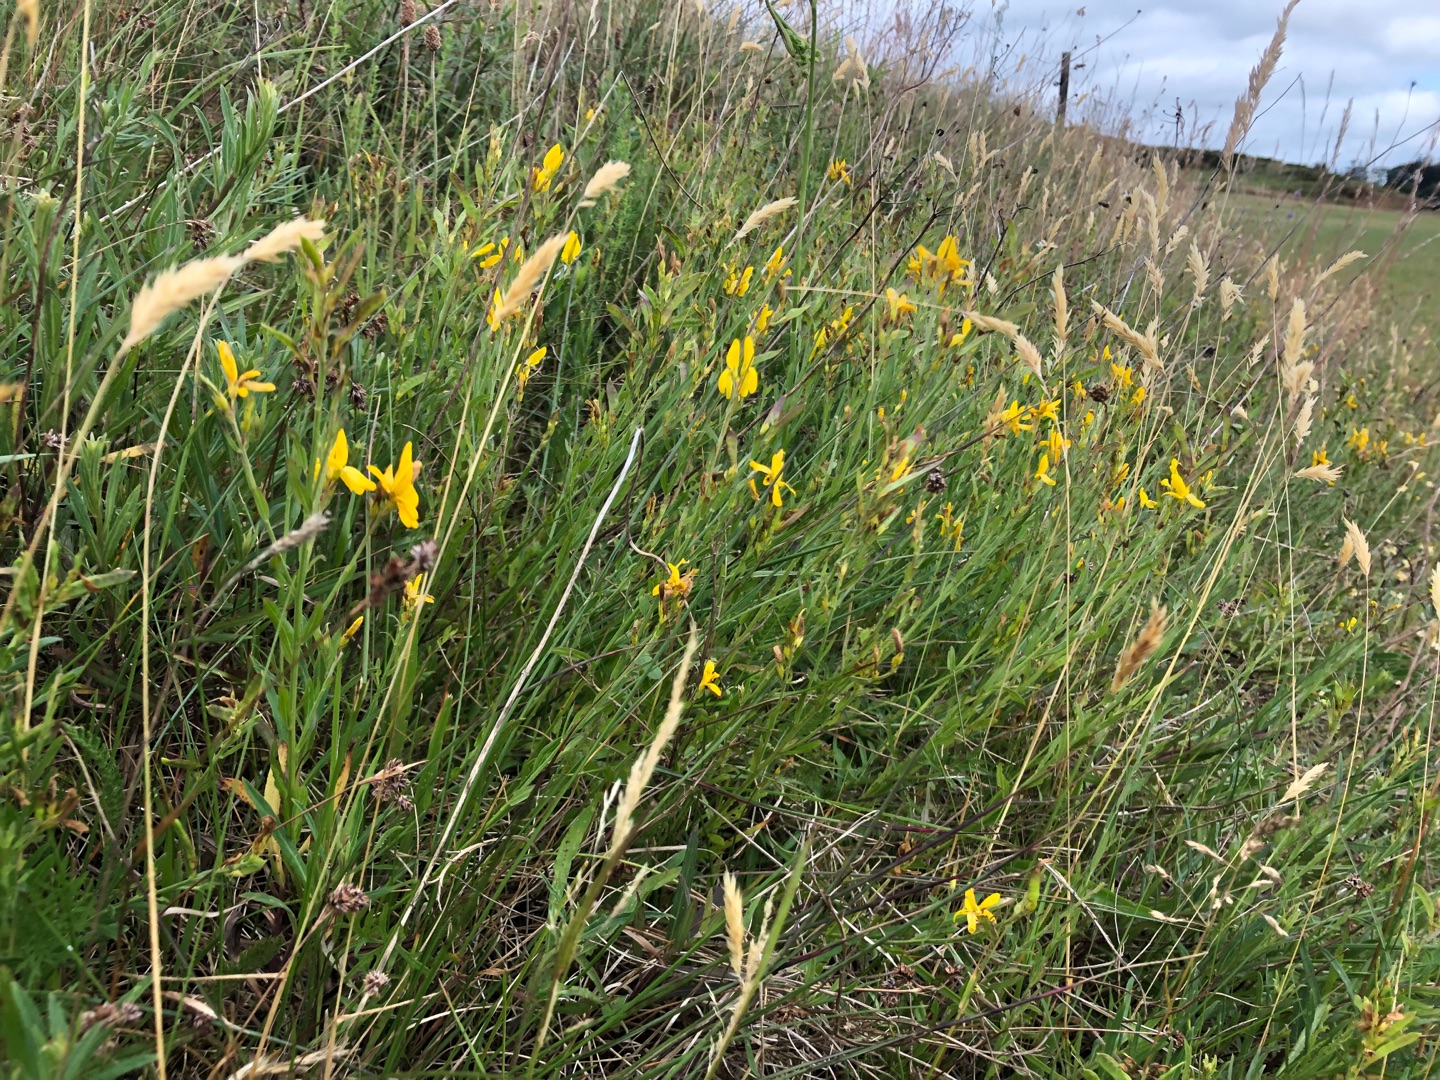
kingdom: Plantae
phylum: Tracheophyta
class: Magnoliopsida
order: Fabales
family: Fabaceae
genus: Genista
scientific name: Genista tinctoria
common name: Farve-visse
